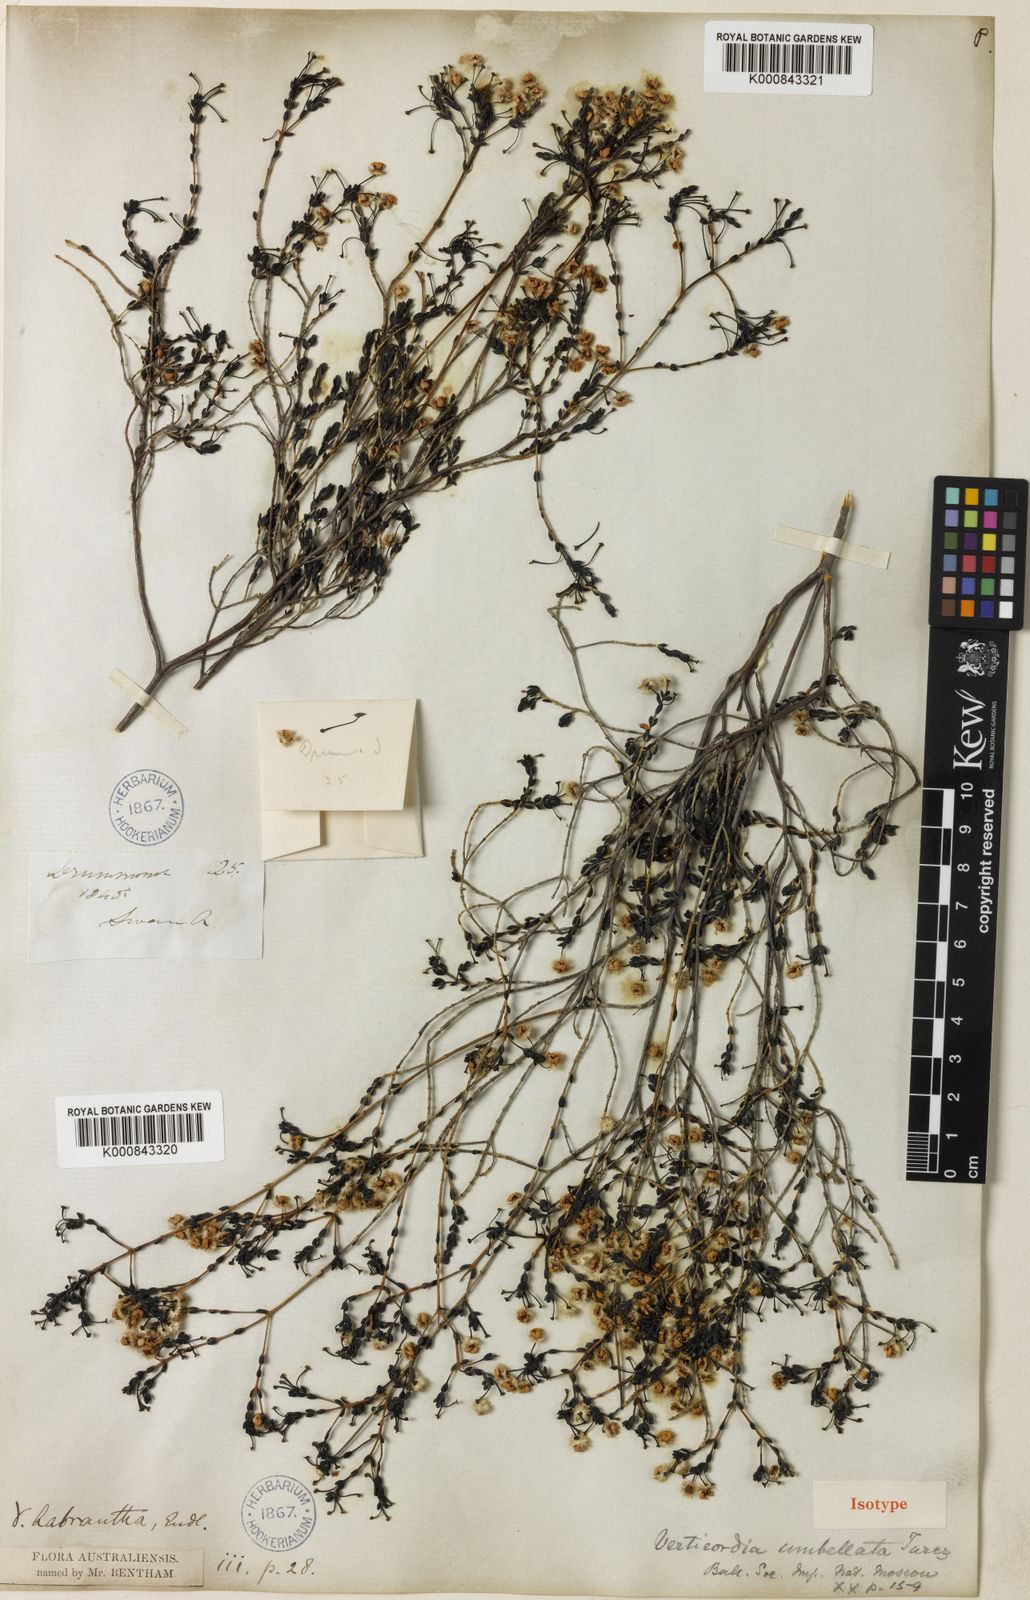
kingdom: Plantae
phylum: Tracheophyta
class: Magnoliopsida
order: Myrtales
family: Myrtaceae
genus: Verticordia
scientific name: Verticordia
